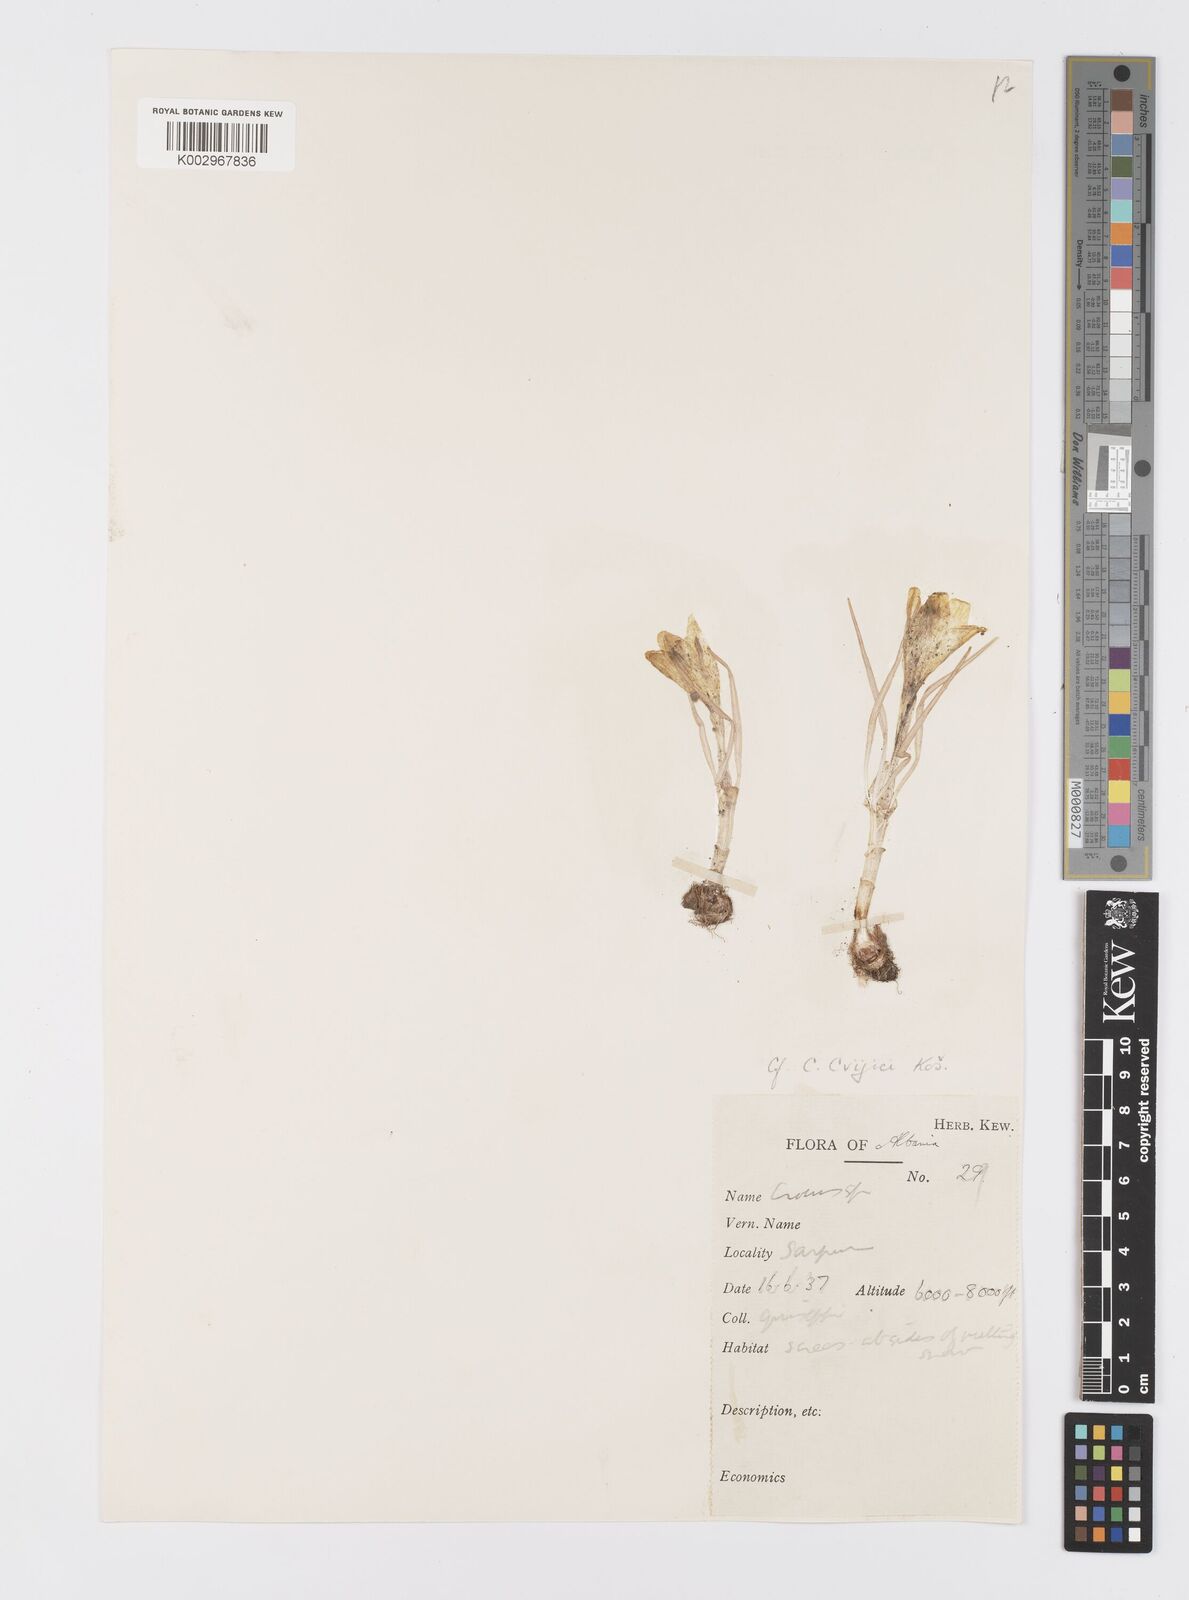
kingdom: Plantae
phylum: Tracheophyta
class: Liliopsida
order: Asparagales
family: Iridaceae
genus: Crocus
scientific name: Crocus cvijicii
